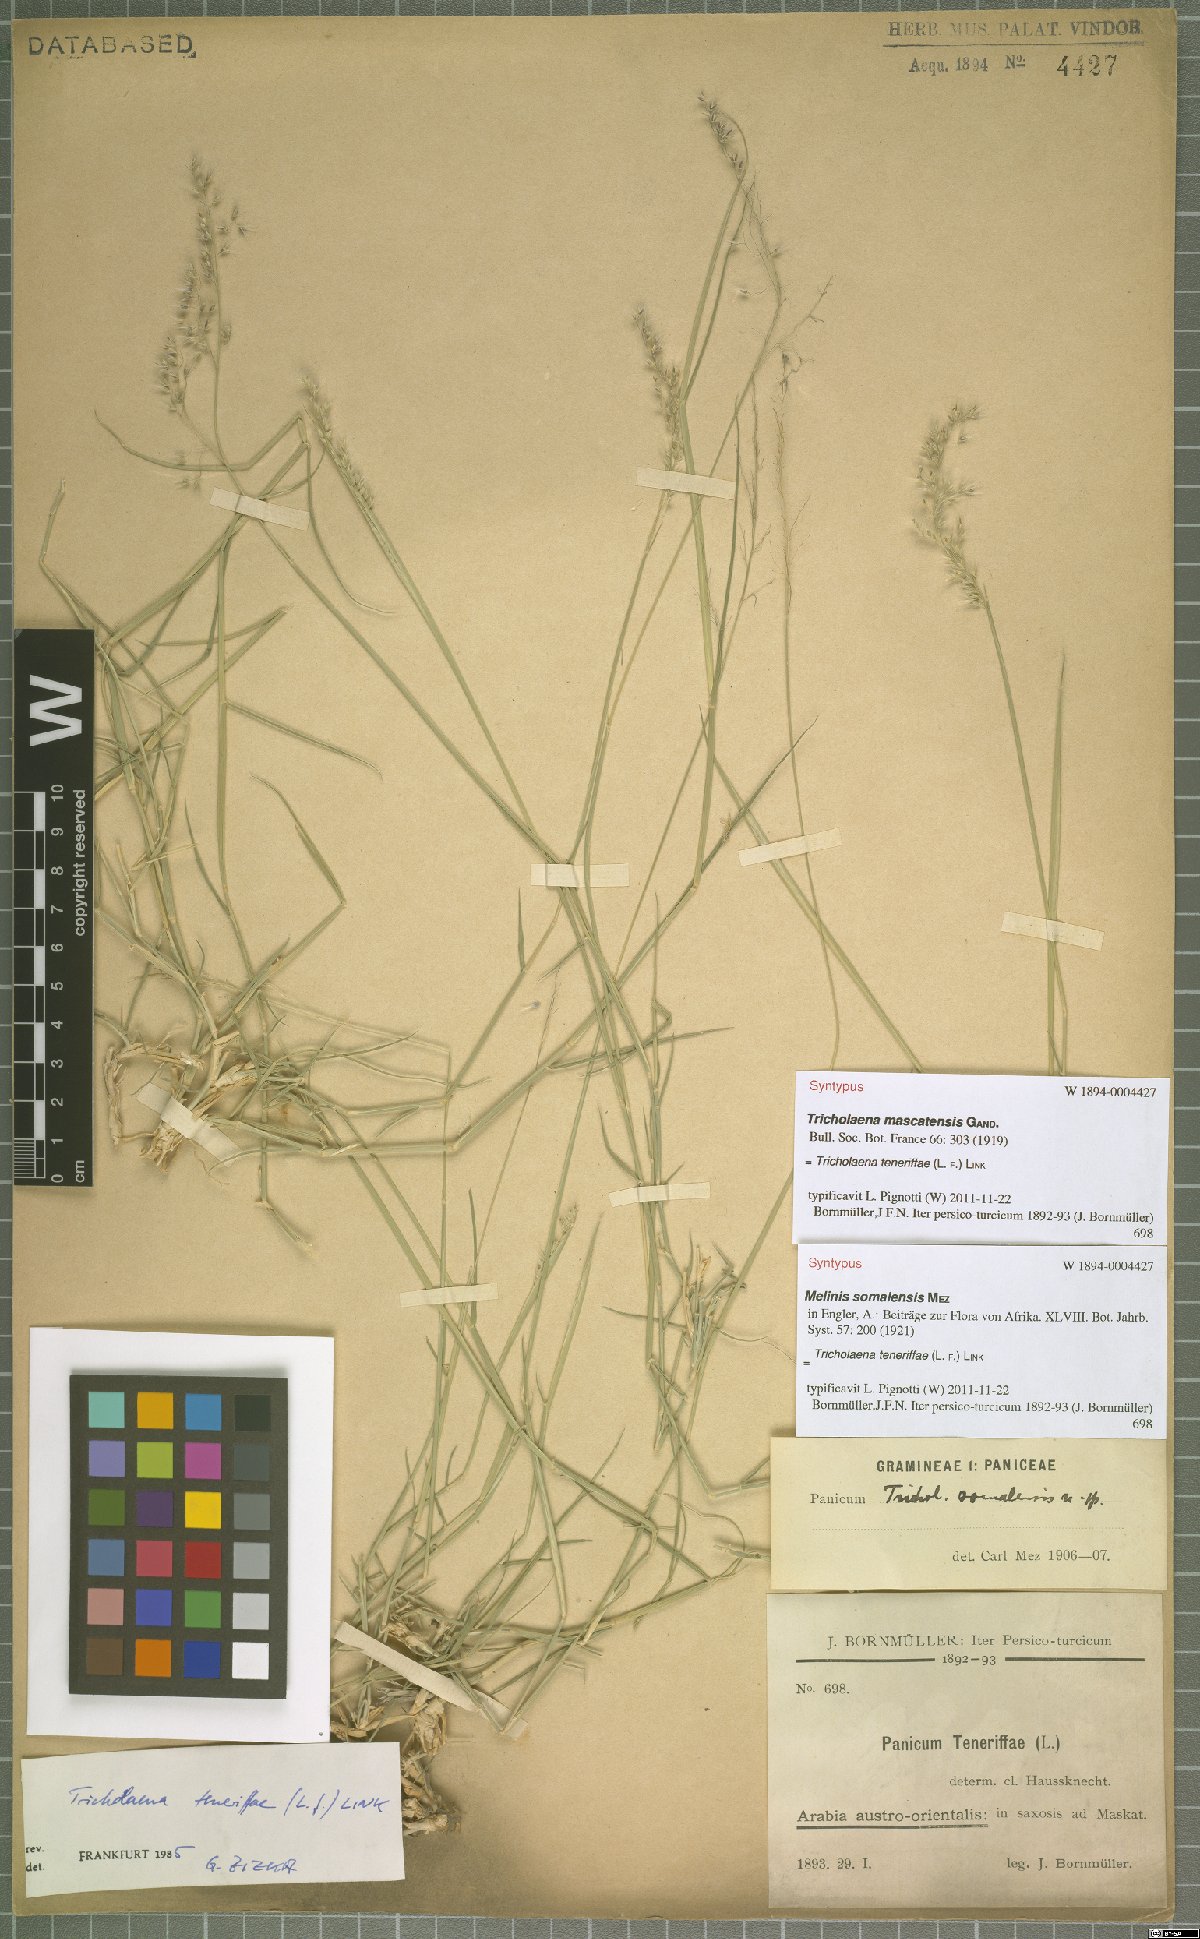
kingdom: Plantae
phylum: Tracheophyta
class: Liliopsida
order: Poales
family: Poaceae
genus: Tricholaena
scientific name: Tricholaena teneriffae
